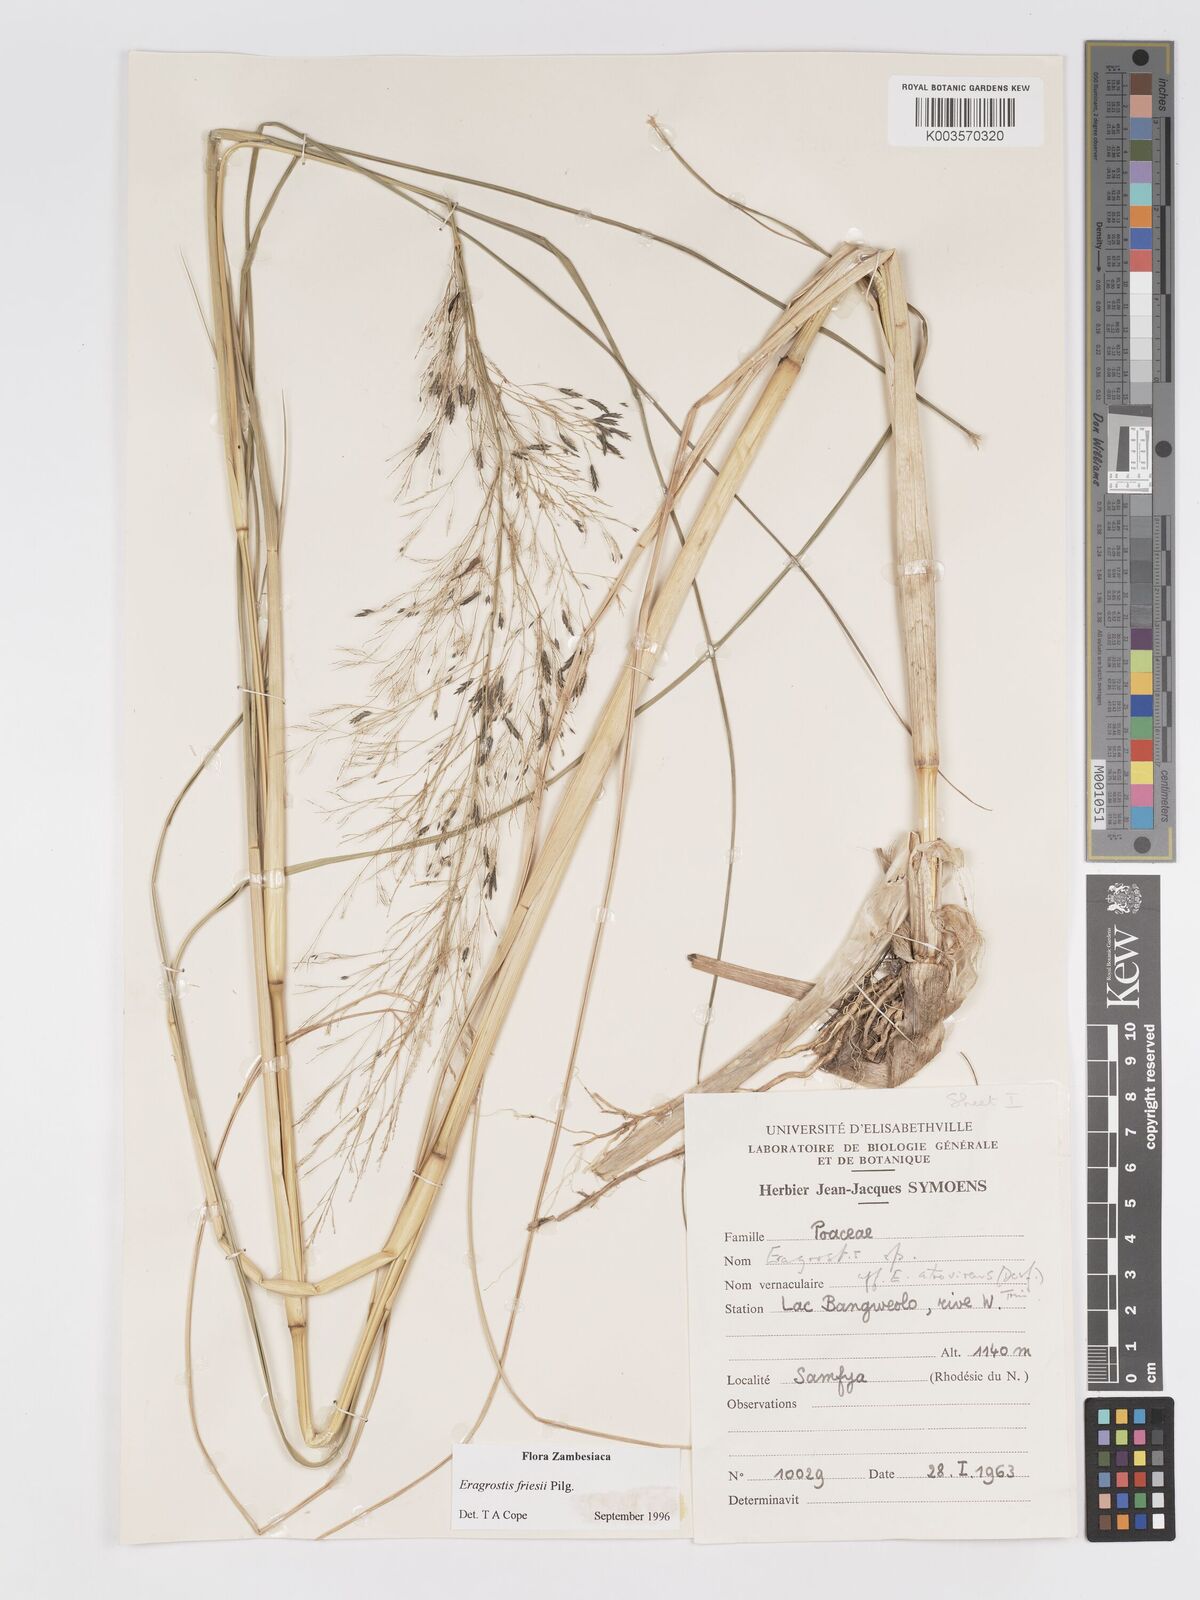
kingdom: Plantae
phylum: Tracheophyta
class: Liliopsida
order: Poales
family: Poaceae
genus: Eragrostis
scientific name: Eragrostis friesii
